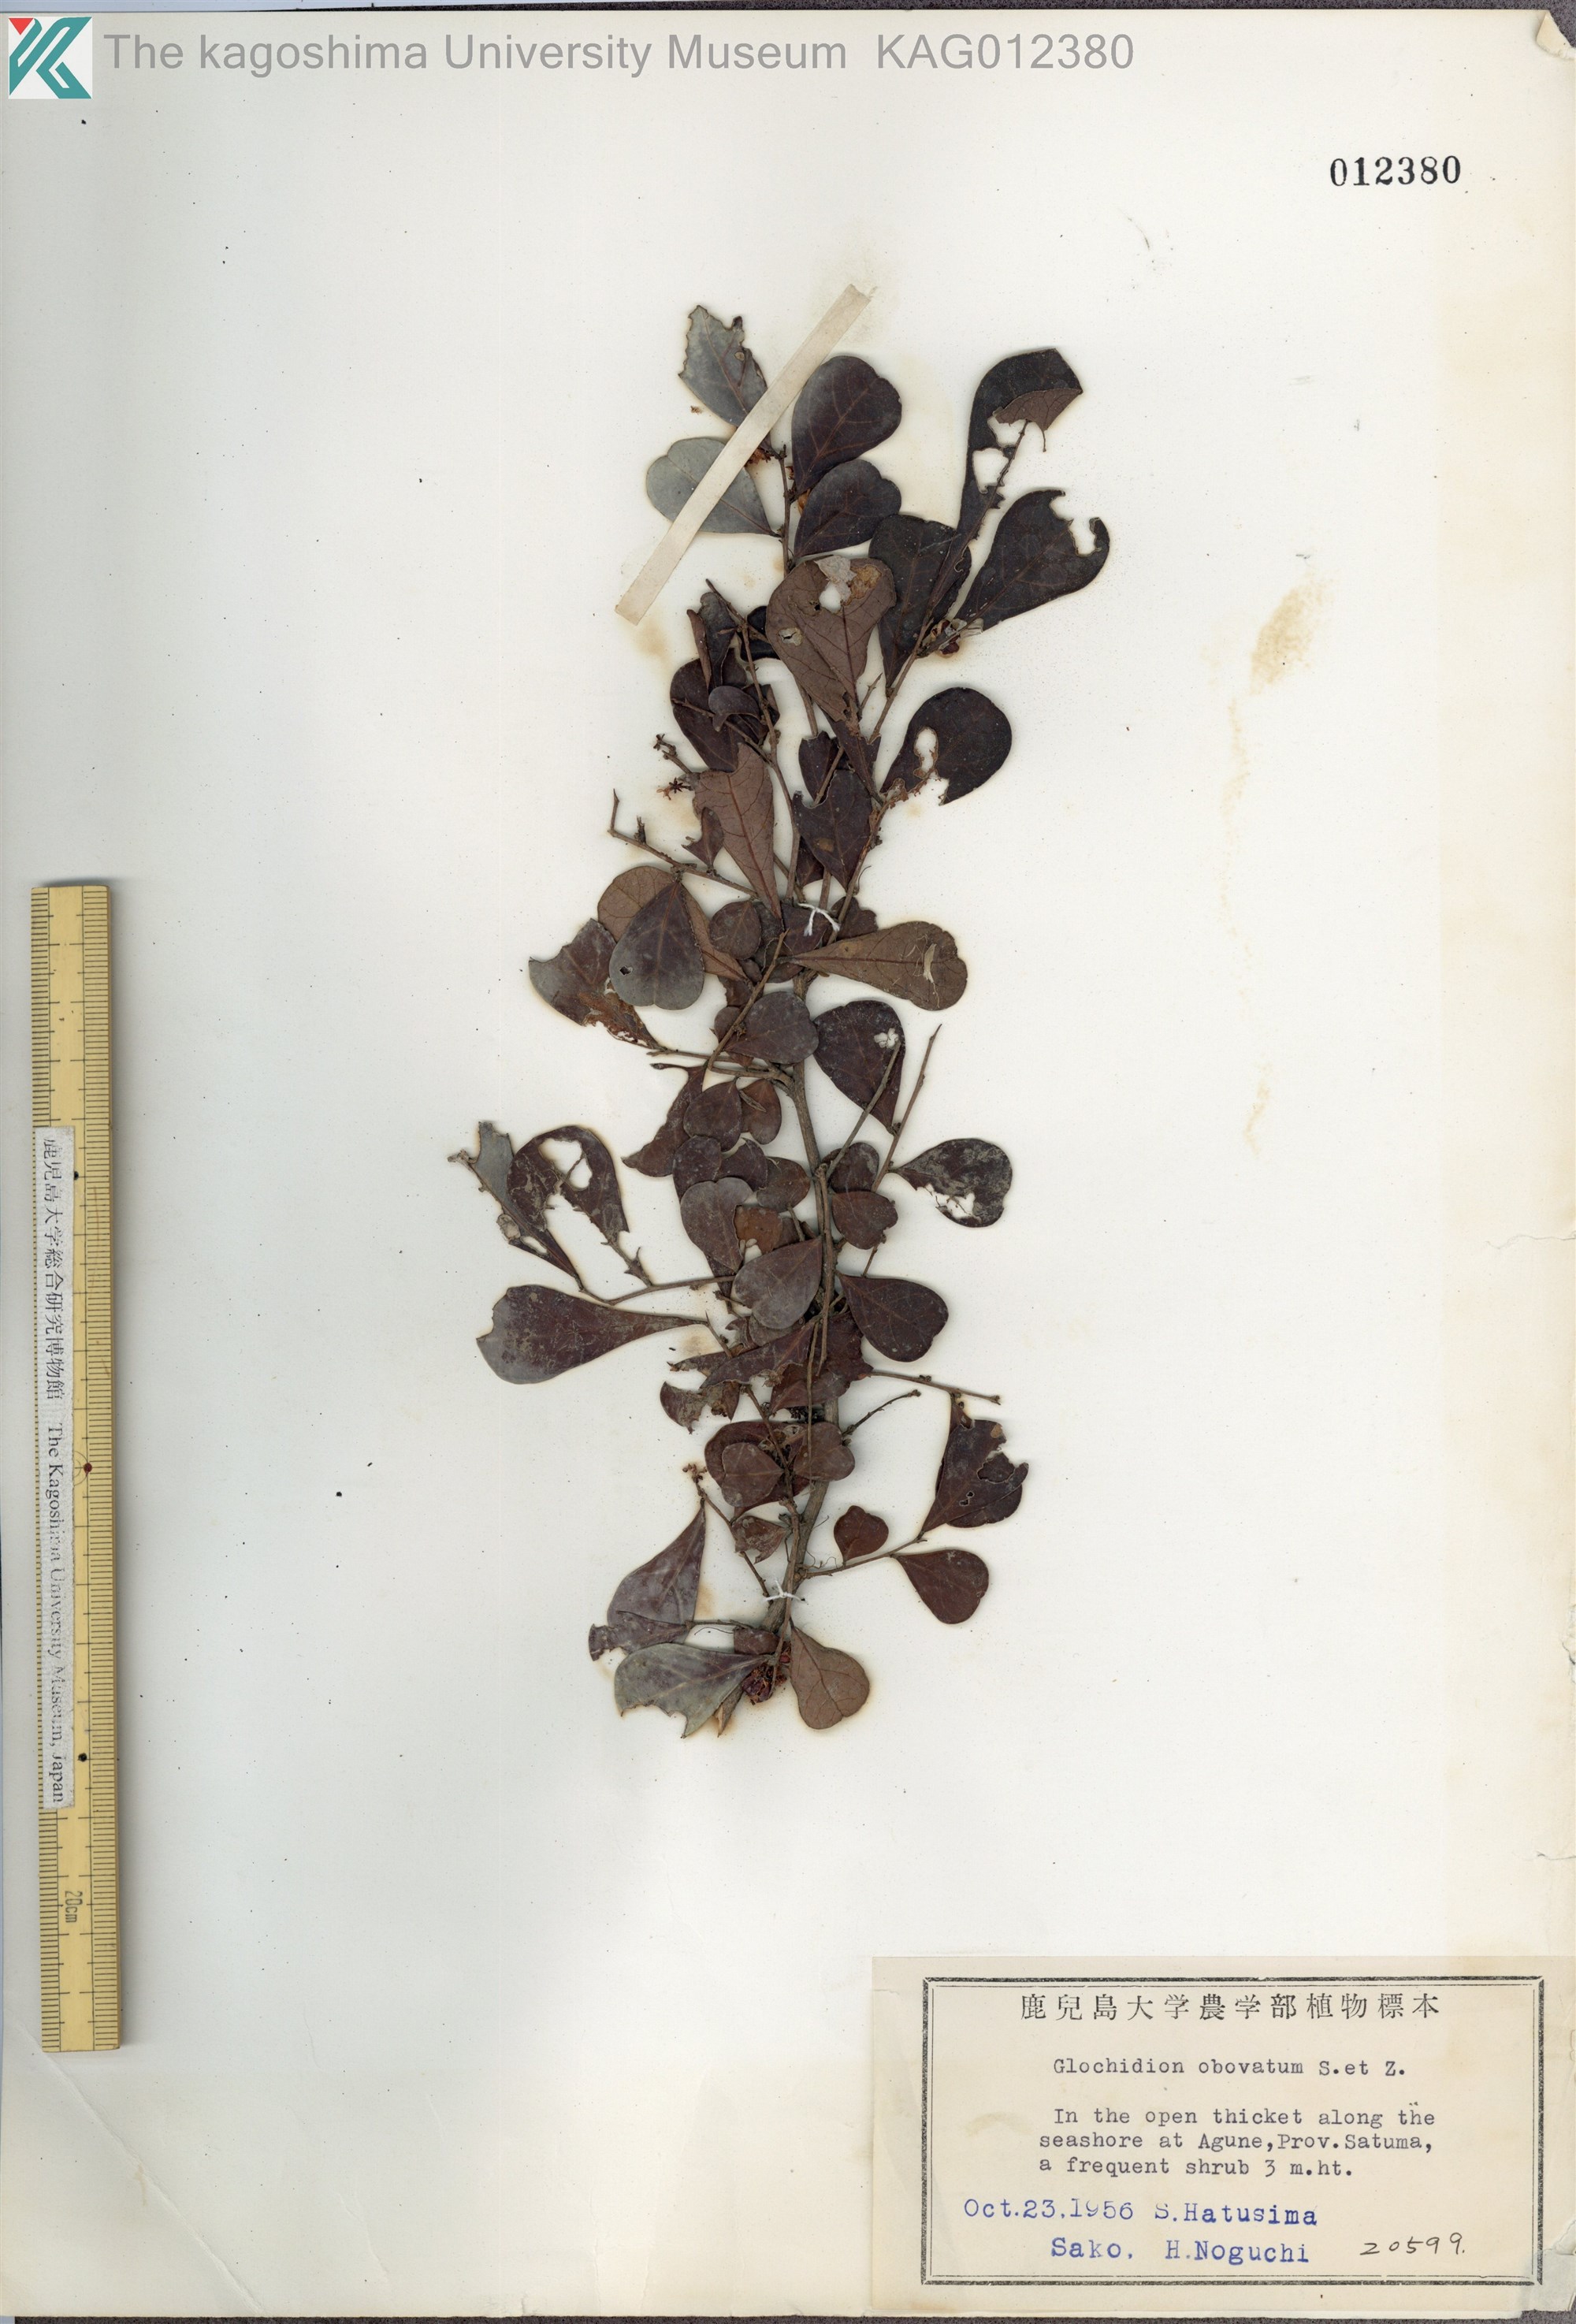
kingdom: Plantae
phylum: Tracheophyta
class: Magnoliopsida
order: Malpighiales
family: Phyllanthaceae
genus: Glochidion
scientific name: Glochidion obovatum
